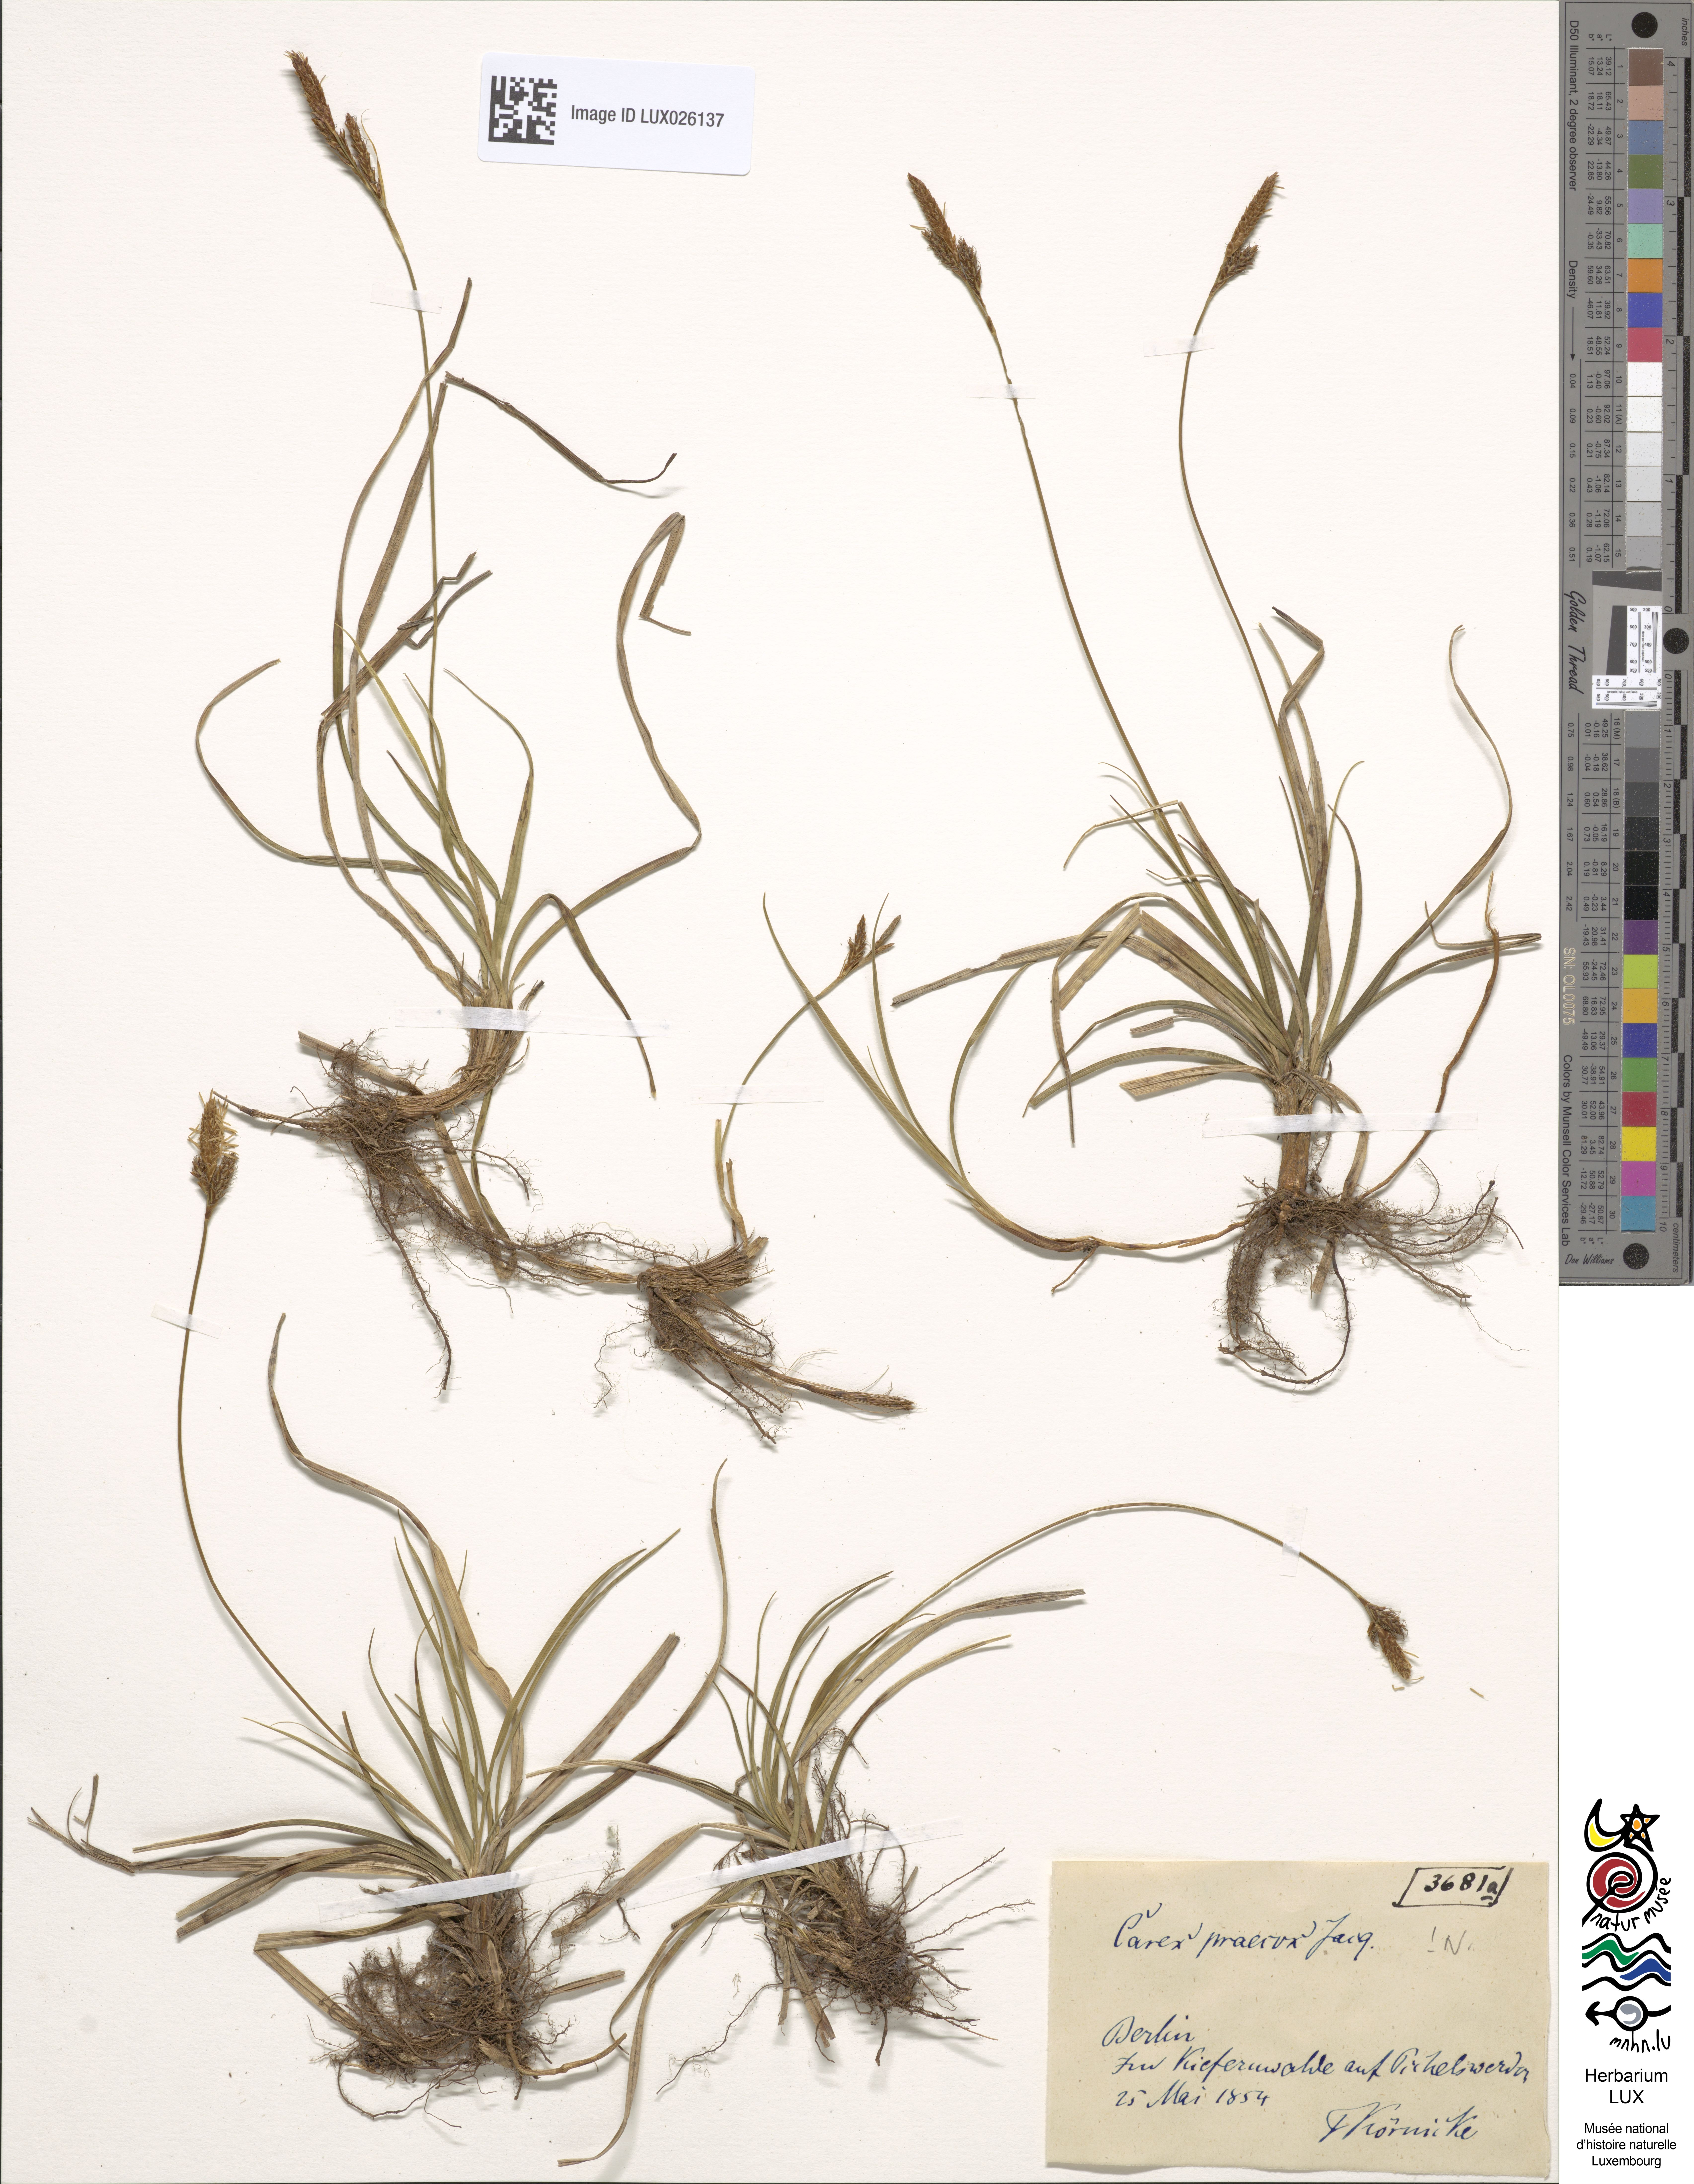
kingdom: Plantae
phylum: Tracheophyta
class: Liliopsida
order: Poales
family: Cyperaceae
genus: Carex
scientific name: Carex caryophyllea
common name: Spring sedge
